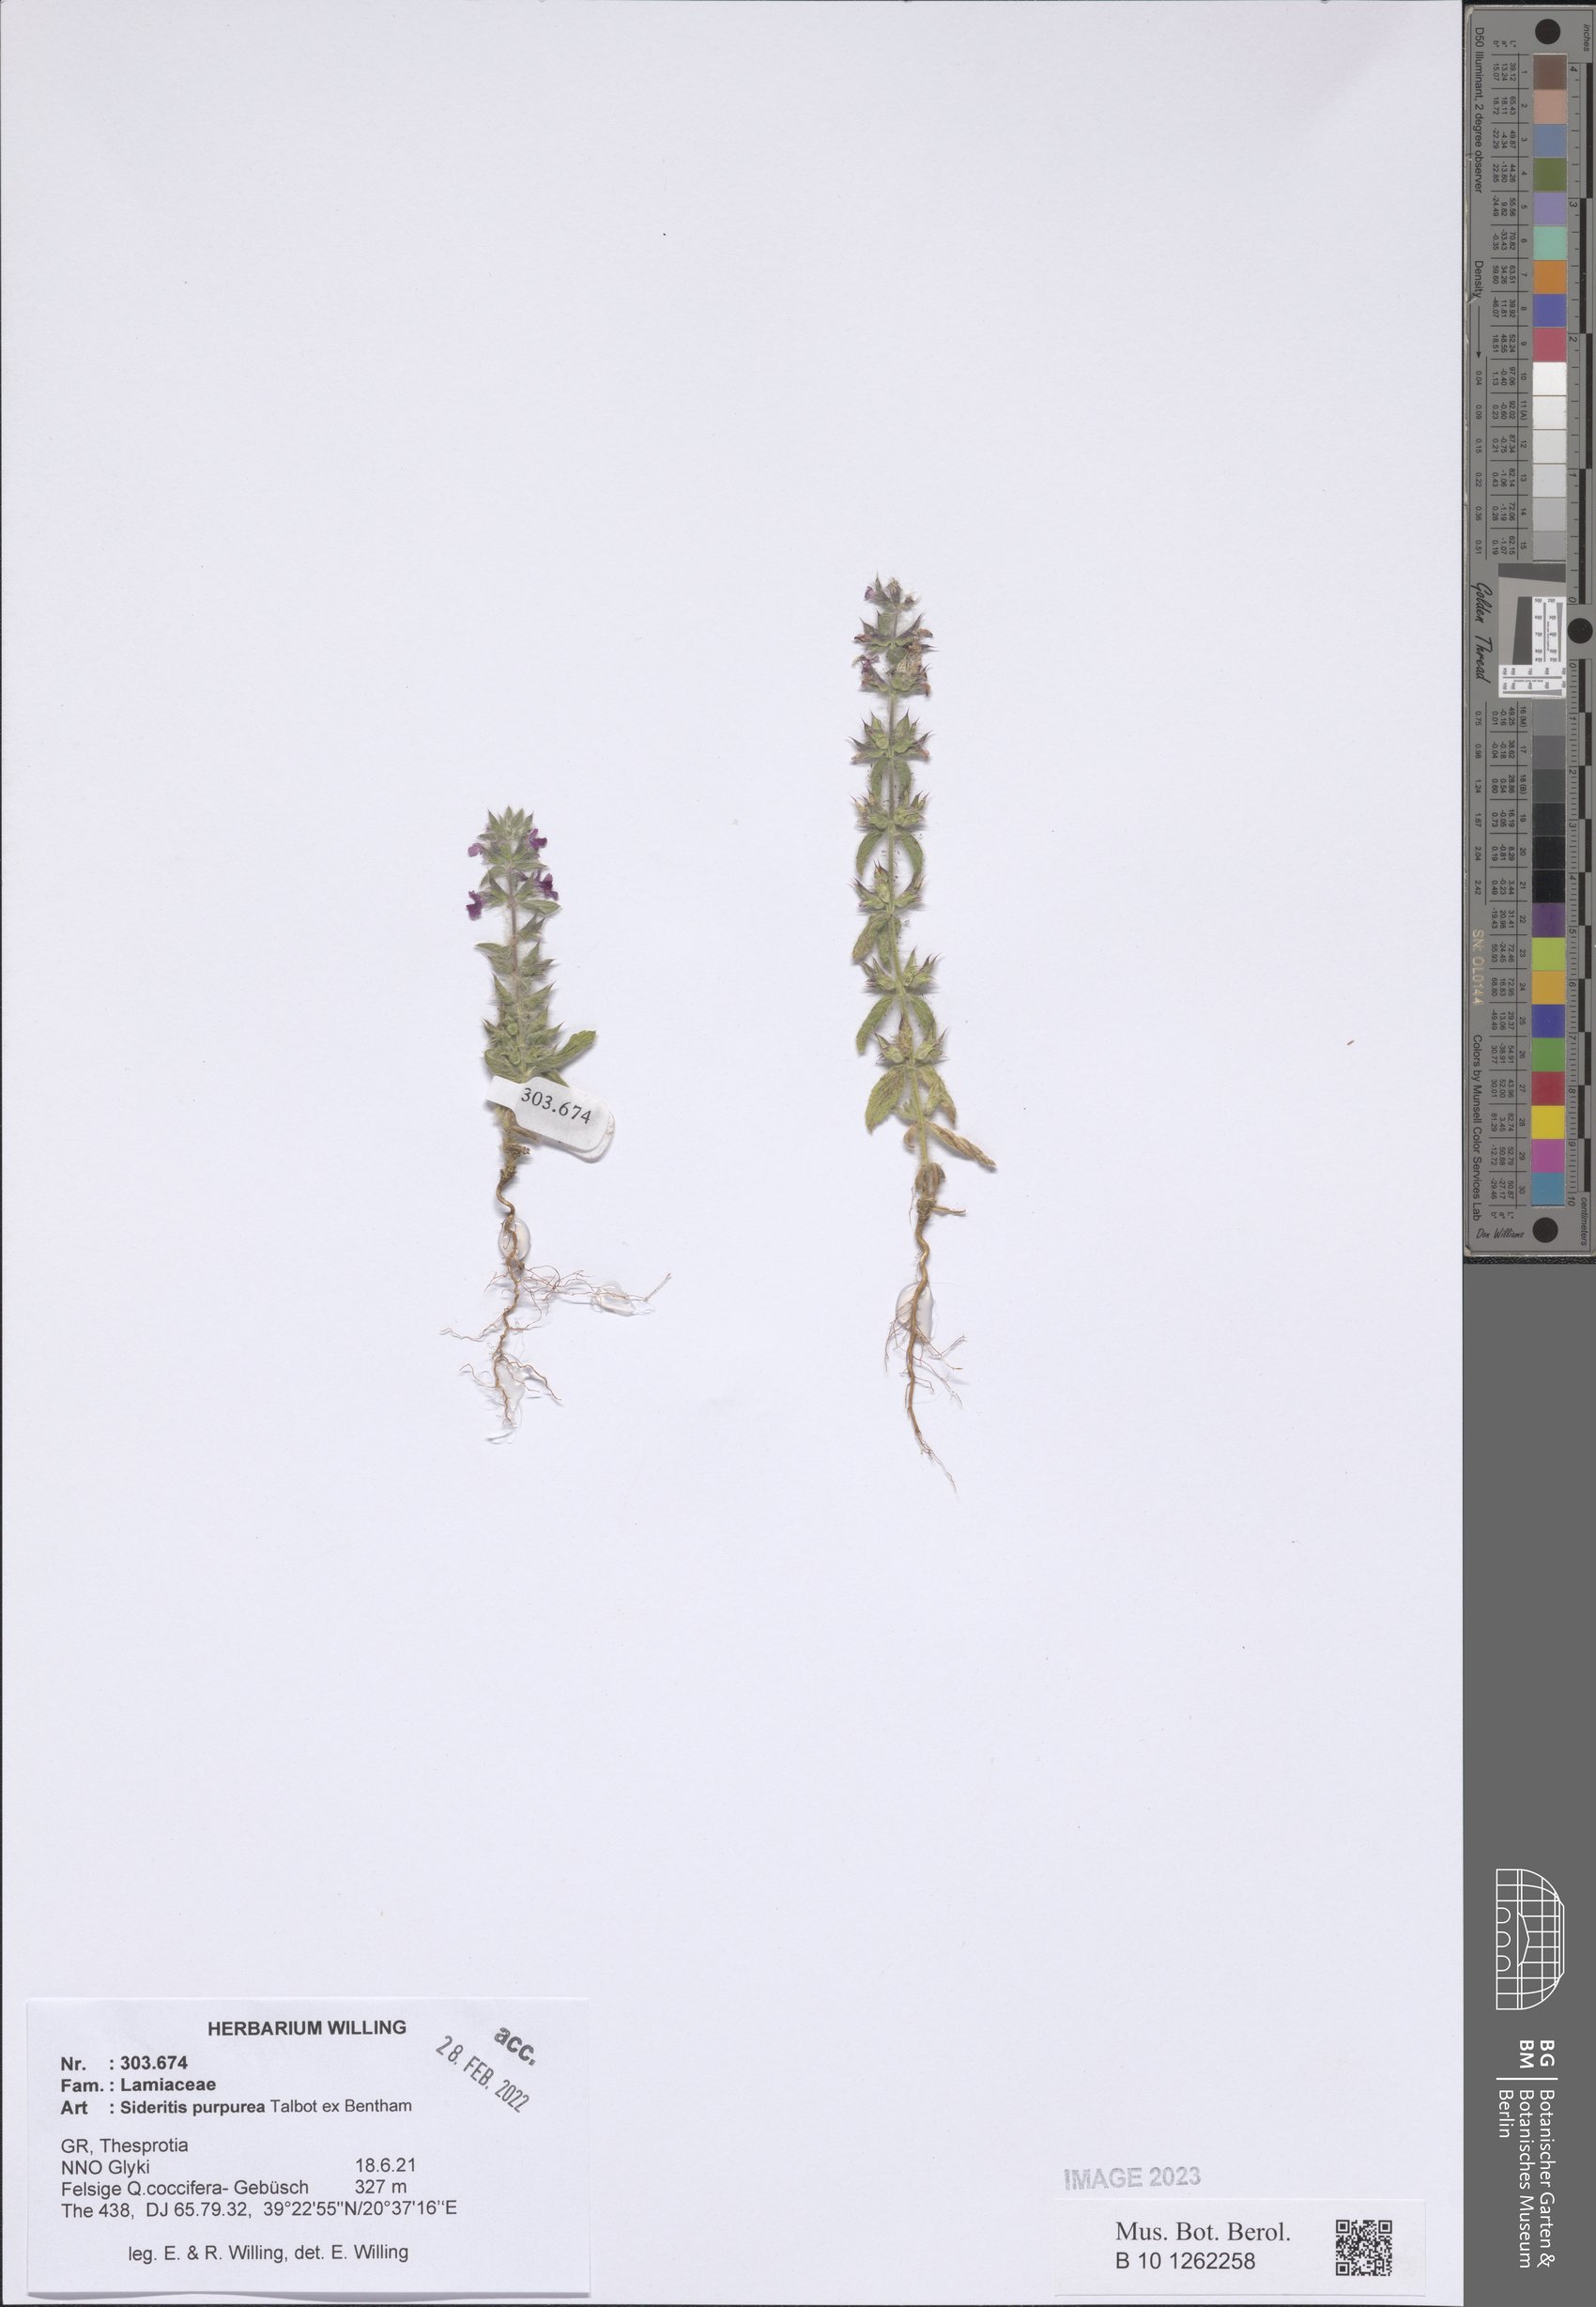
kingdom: Plantae
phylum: Tracheophyta
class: Magnoliopsida
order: Lamiales
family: Lamiaceae
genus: Sideritis
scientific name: Sideritis romana
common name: Simplebeak ironwort
